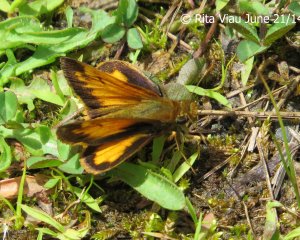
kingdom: Animalia
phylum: Arthropoda
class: Insecta
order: Lepidoptera
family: Hesperiidae
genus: Lon
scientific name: Lon hobomok
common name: Hobomok Skipper
